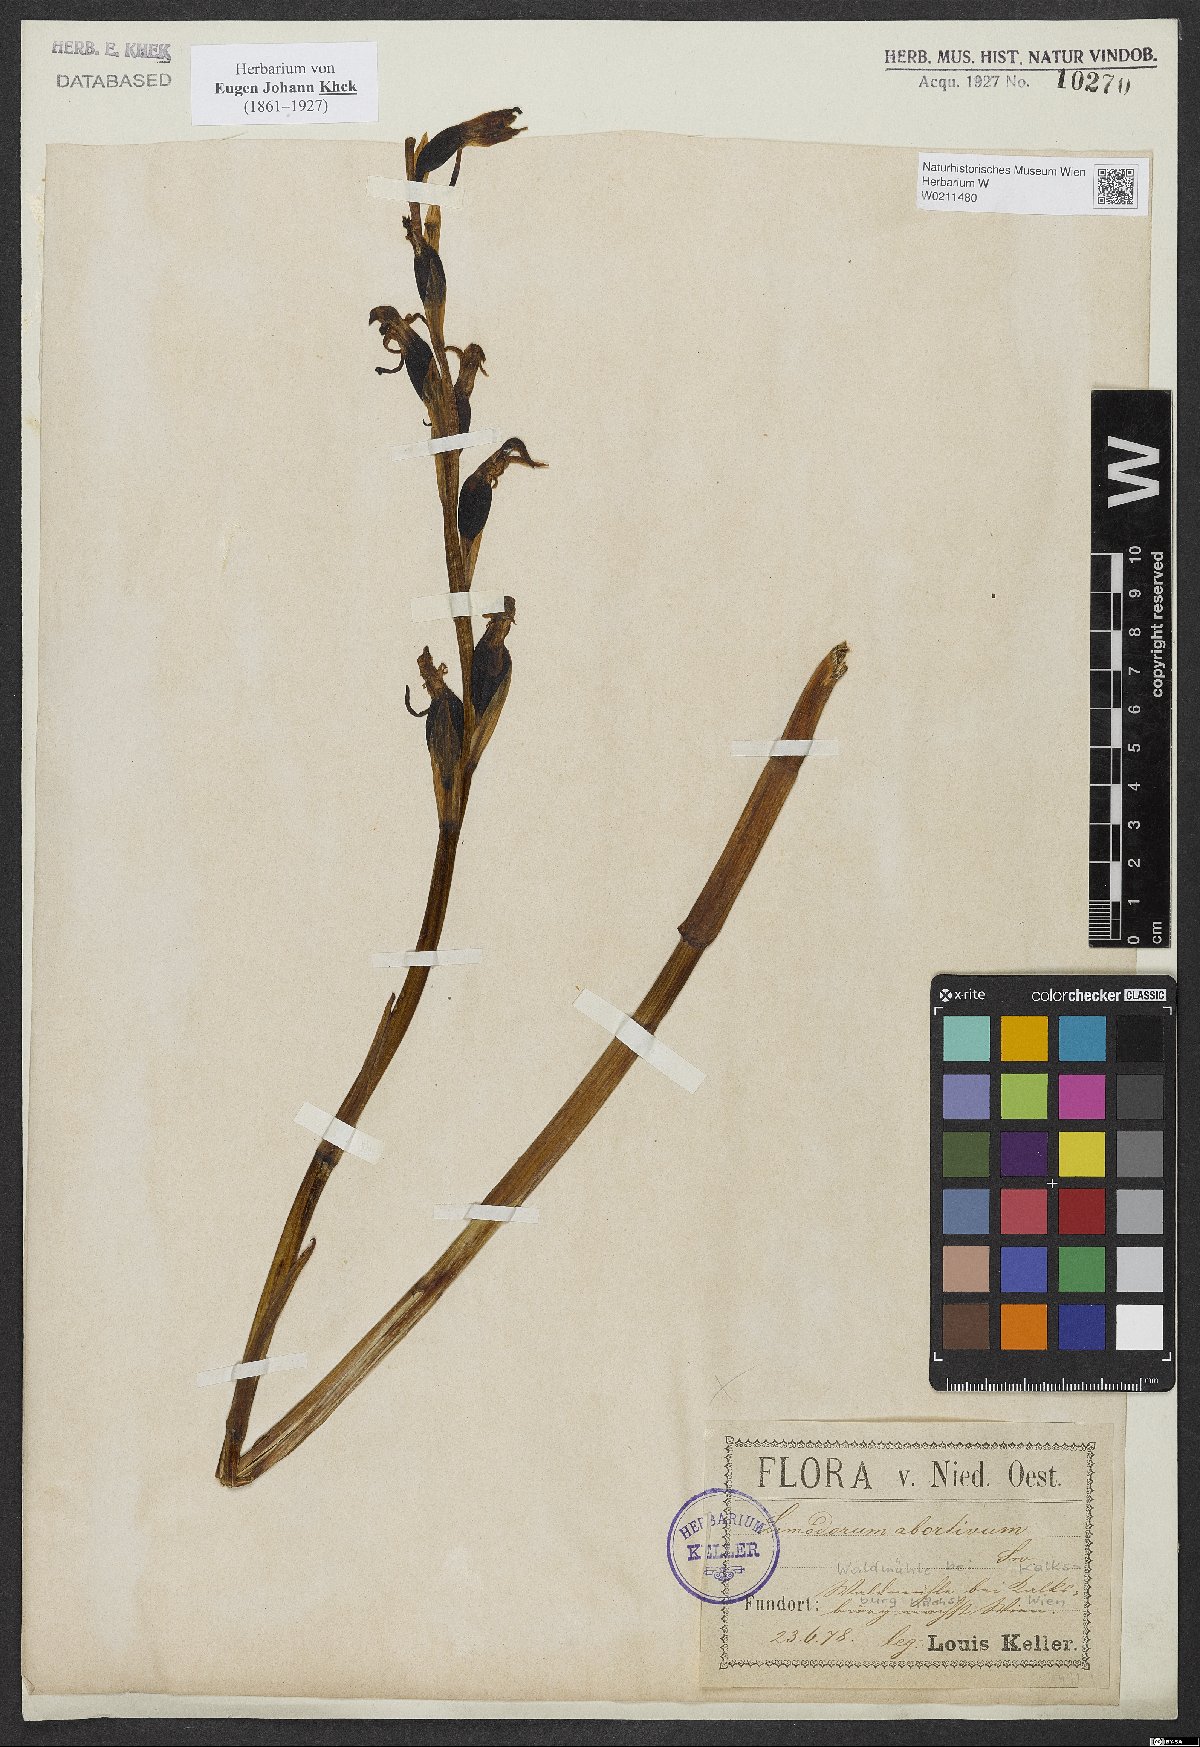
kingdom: Plantae
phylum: Tracheophyta
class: Liliopsida
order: Asparagales
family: Orchidaceae
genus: Limodorum
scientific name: Limodorum abortivum
